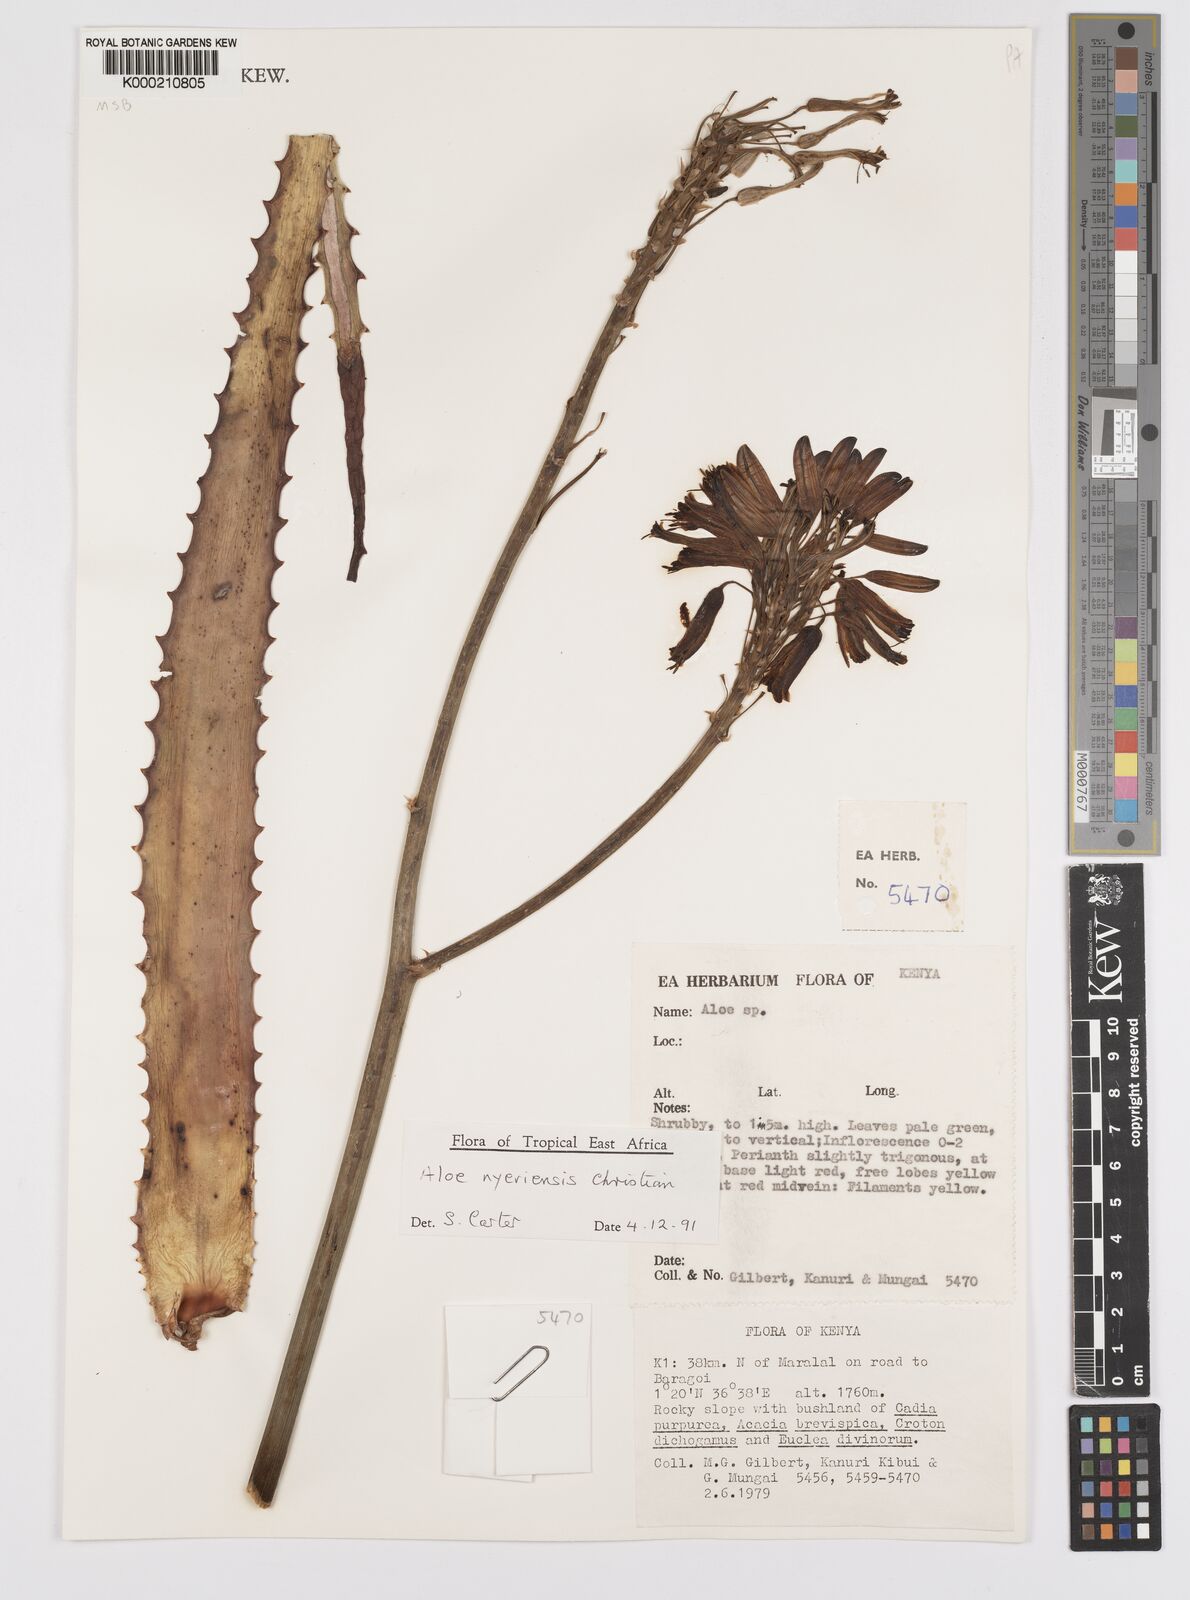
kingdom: Plantae
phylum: Tracheophyta
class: Liliopsida
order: Asparagales
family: Asphodelaceae
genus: Aloe
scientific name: Aloe nyeriensis
